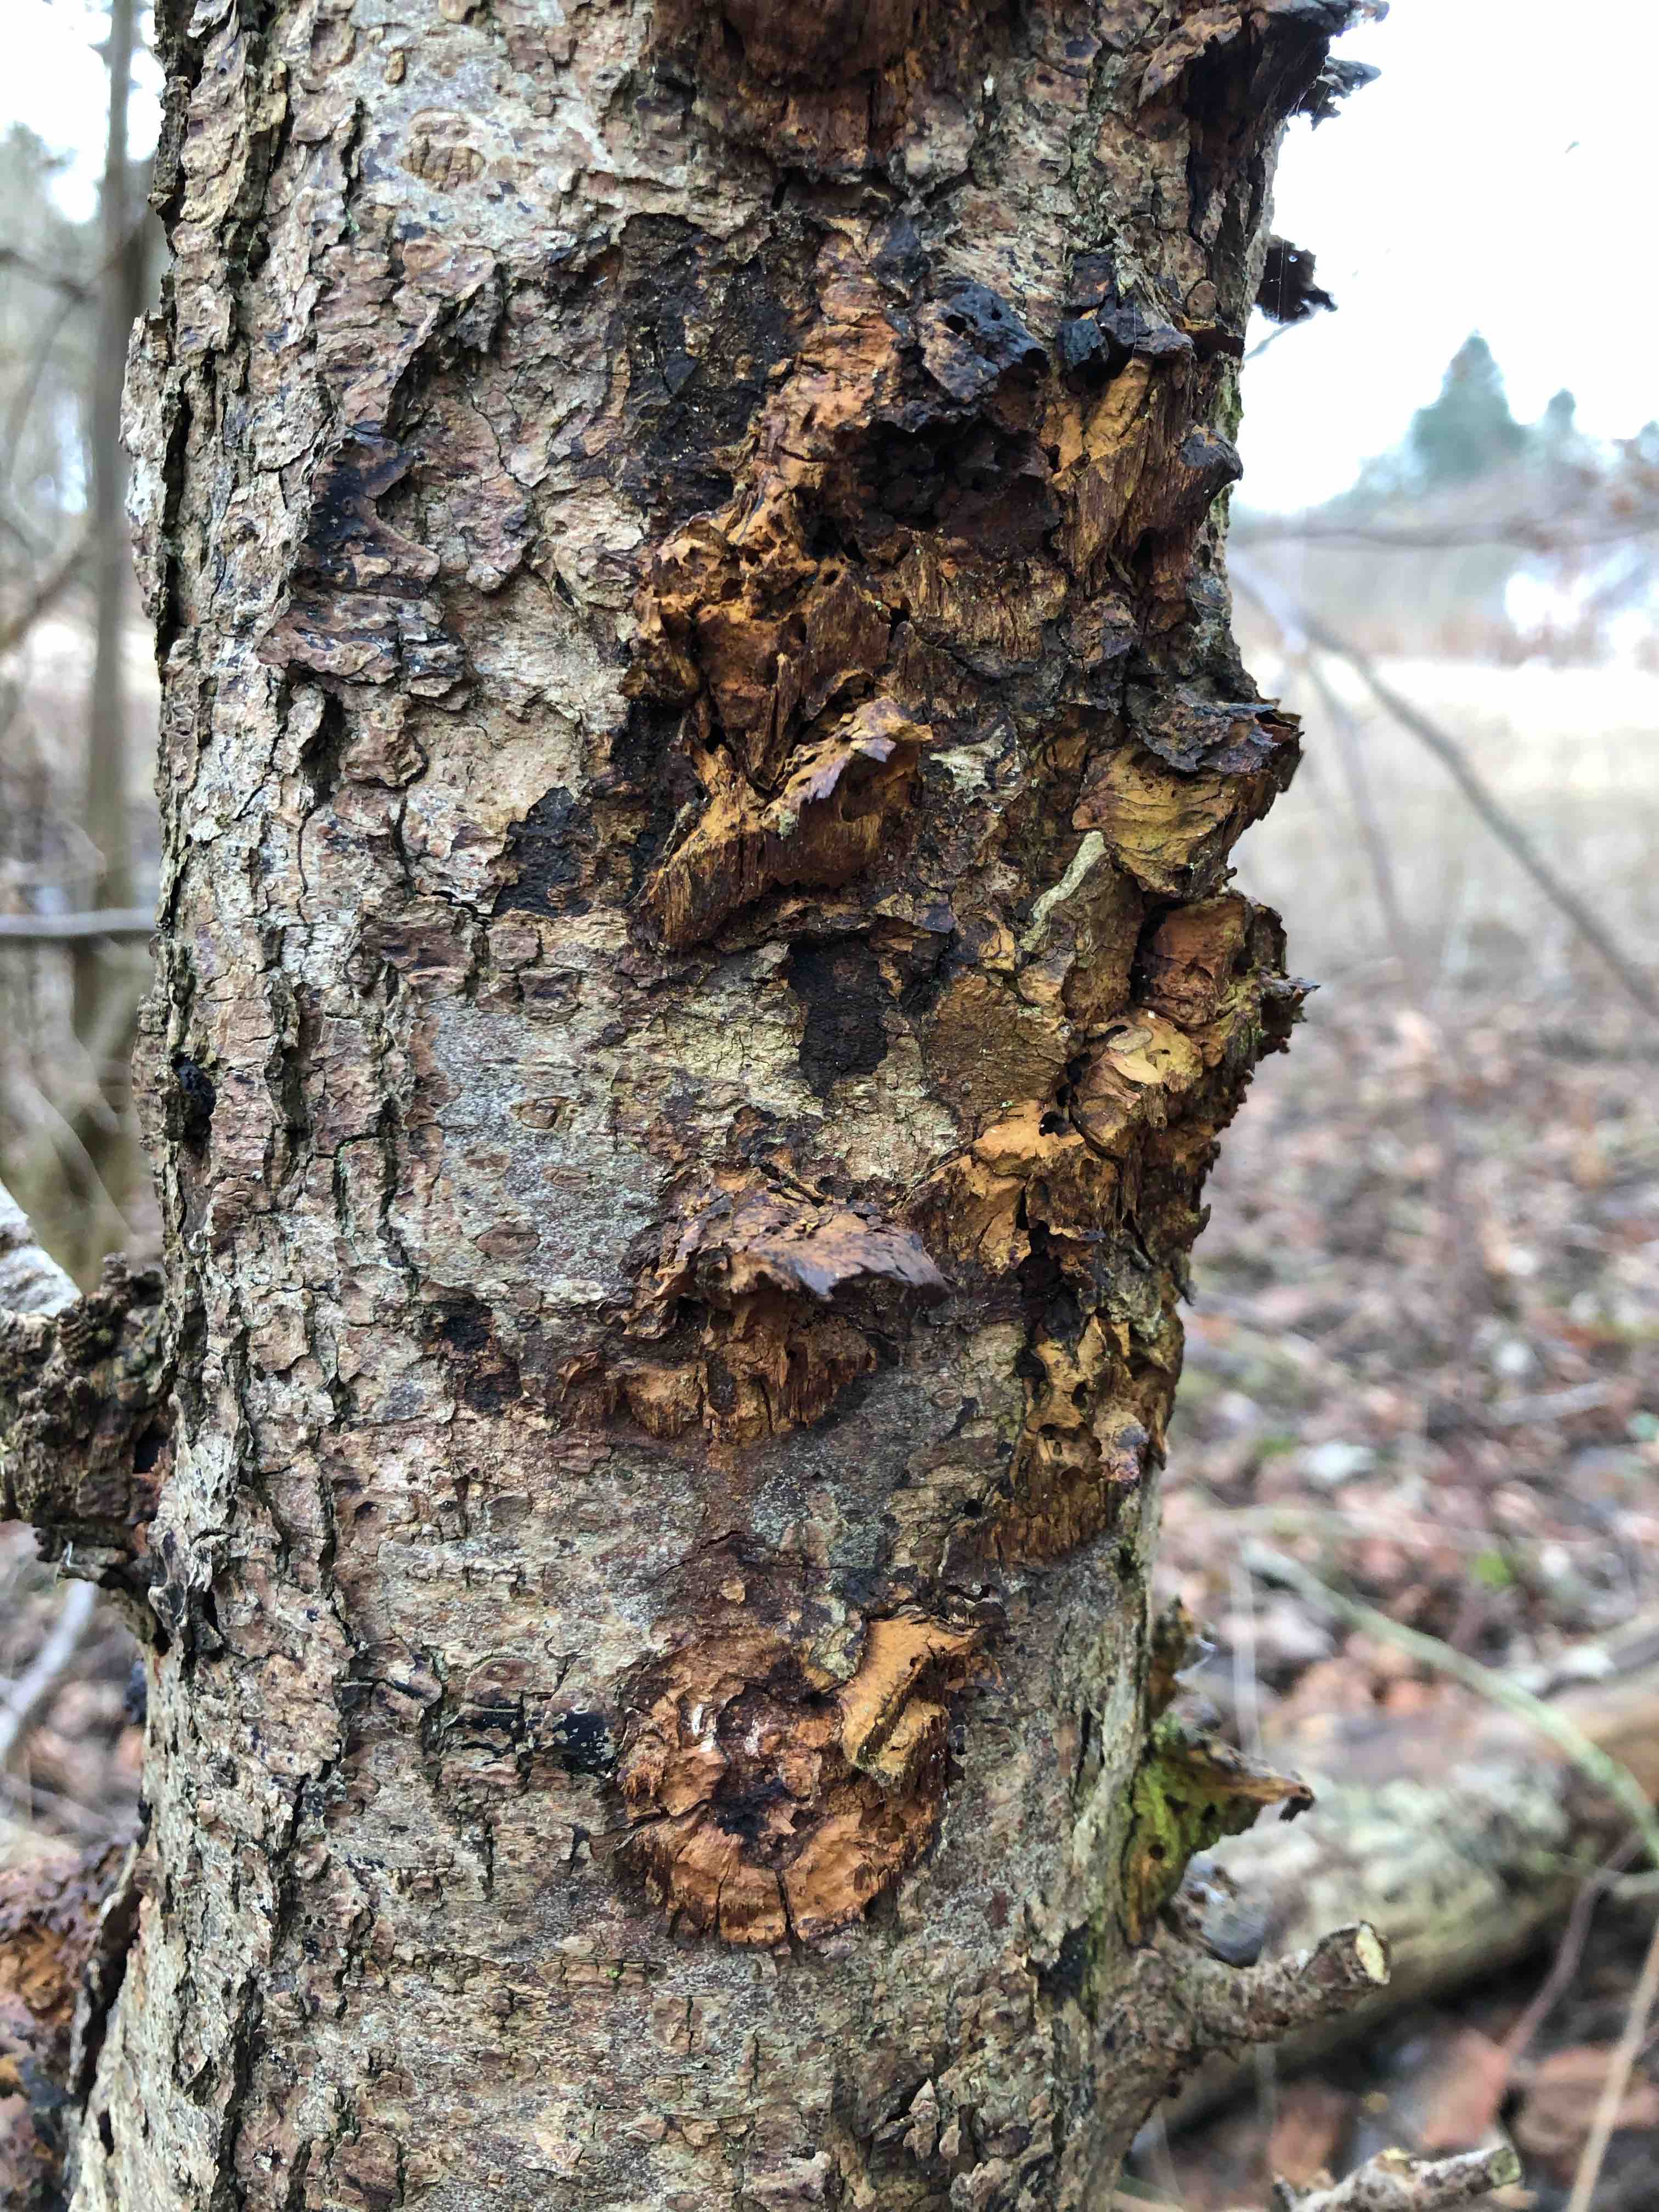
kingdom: Fungi
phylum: Basidiomycota
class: Agaricomycetes
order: Hymenochaetales
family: Hymenochaetaceae
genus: Xanthoporia
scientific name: Xanthoporia radiata
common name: elle-spejlporesvamp
